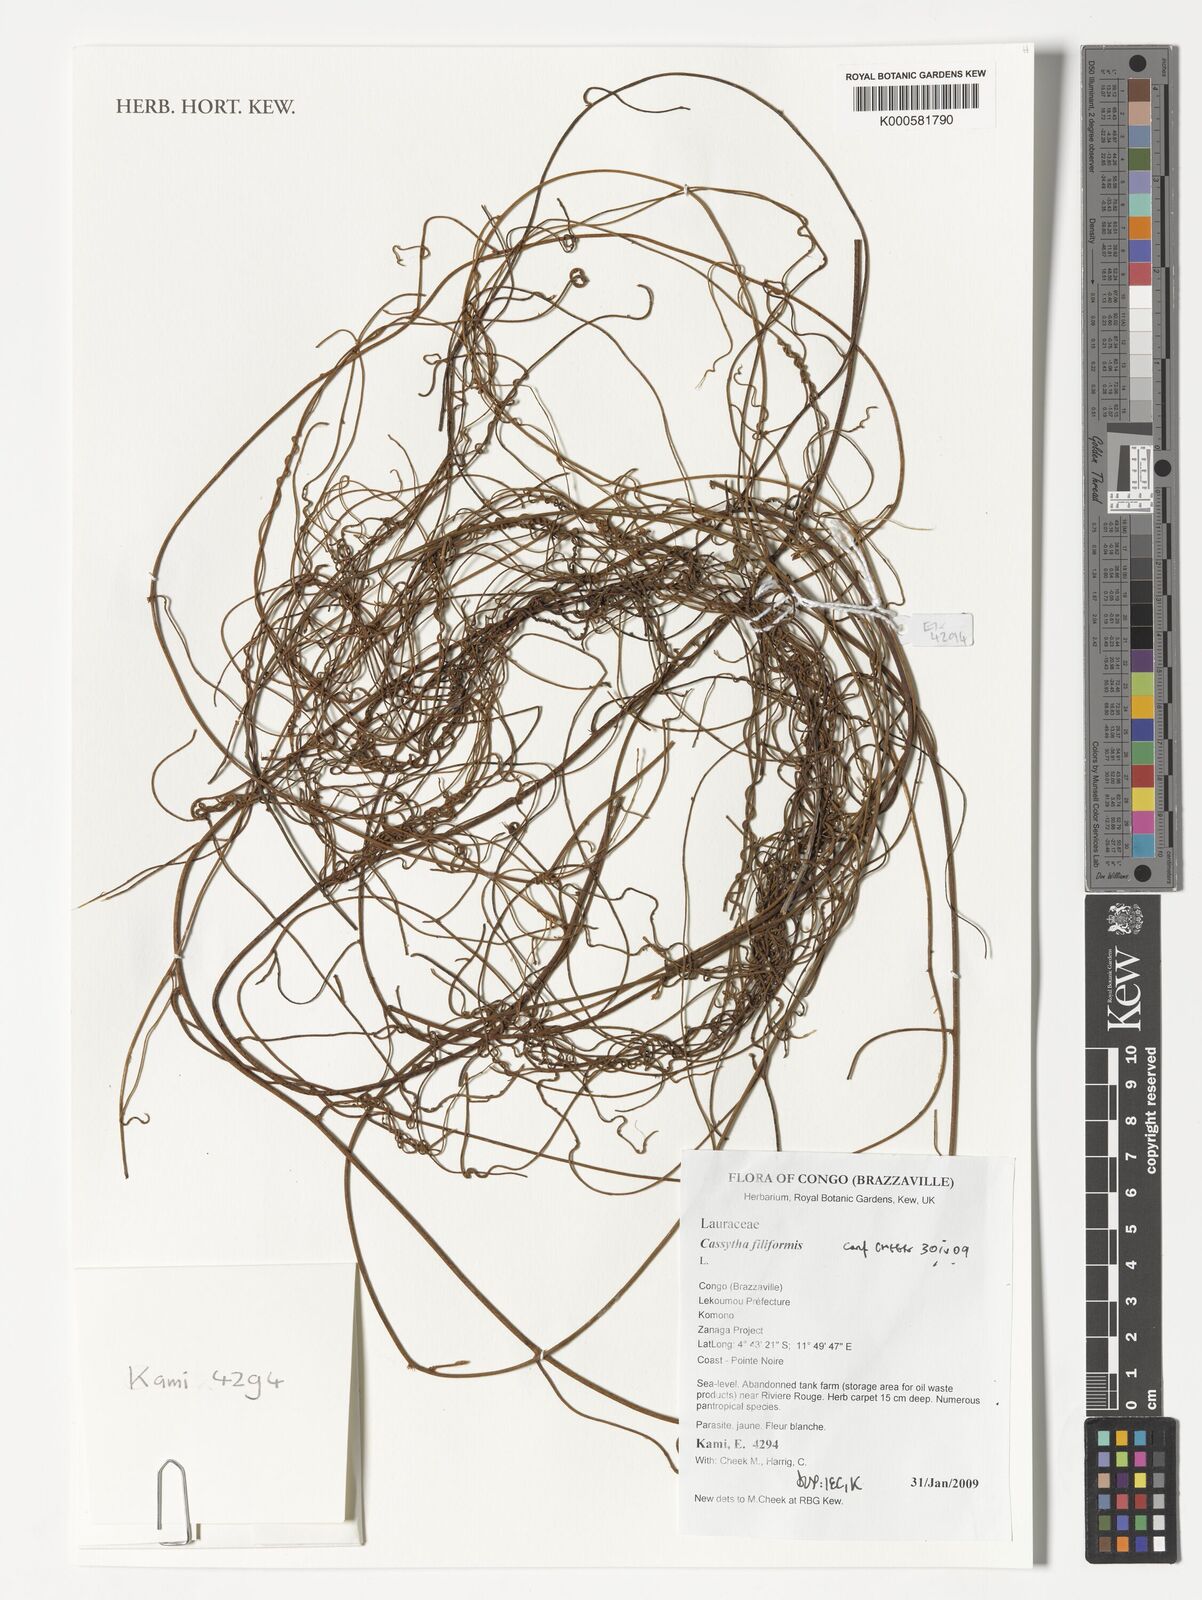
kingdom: Plantae
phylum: Tracheophyta
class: Magnoliopsida
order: Laurales
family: Lauraceae
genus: Cassytha
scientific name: Cassytha filiformis
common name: Dodder-laurel
